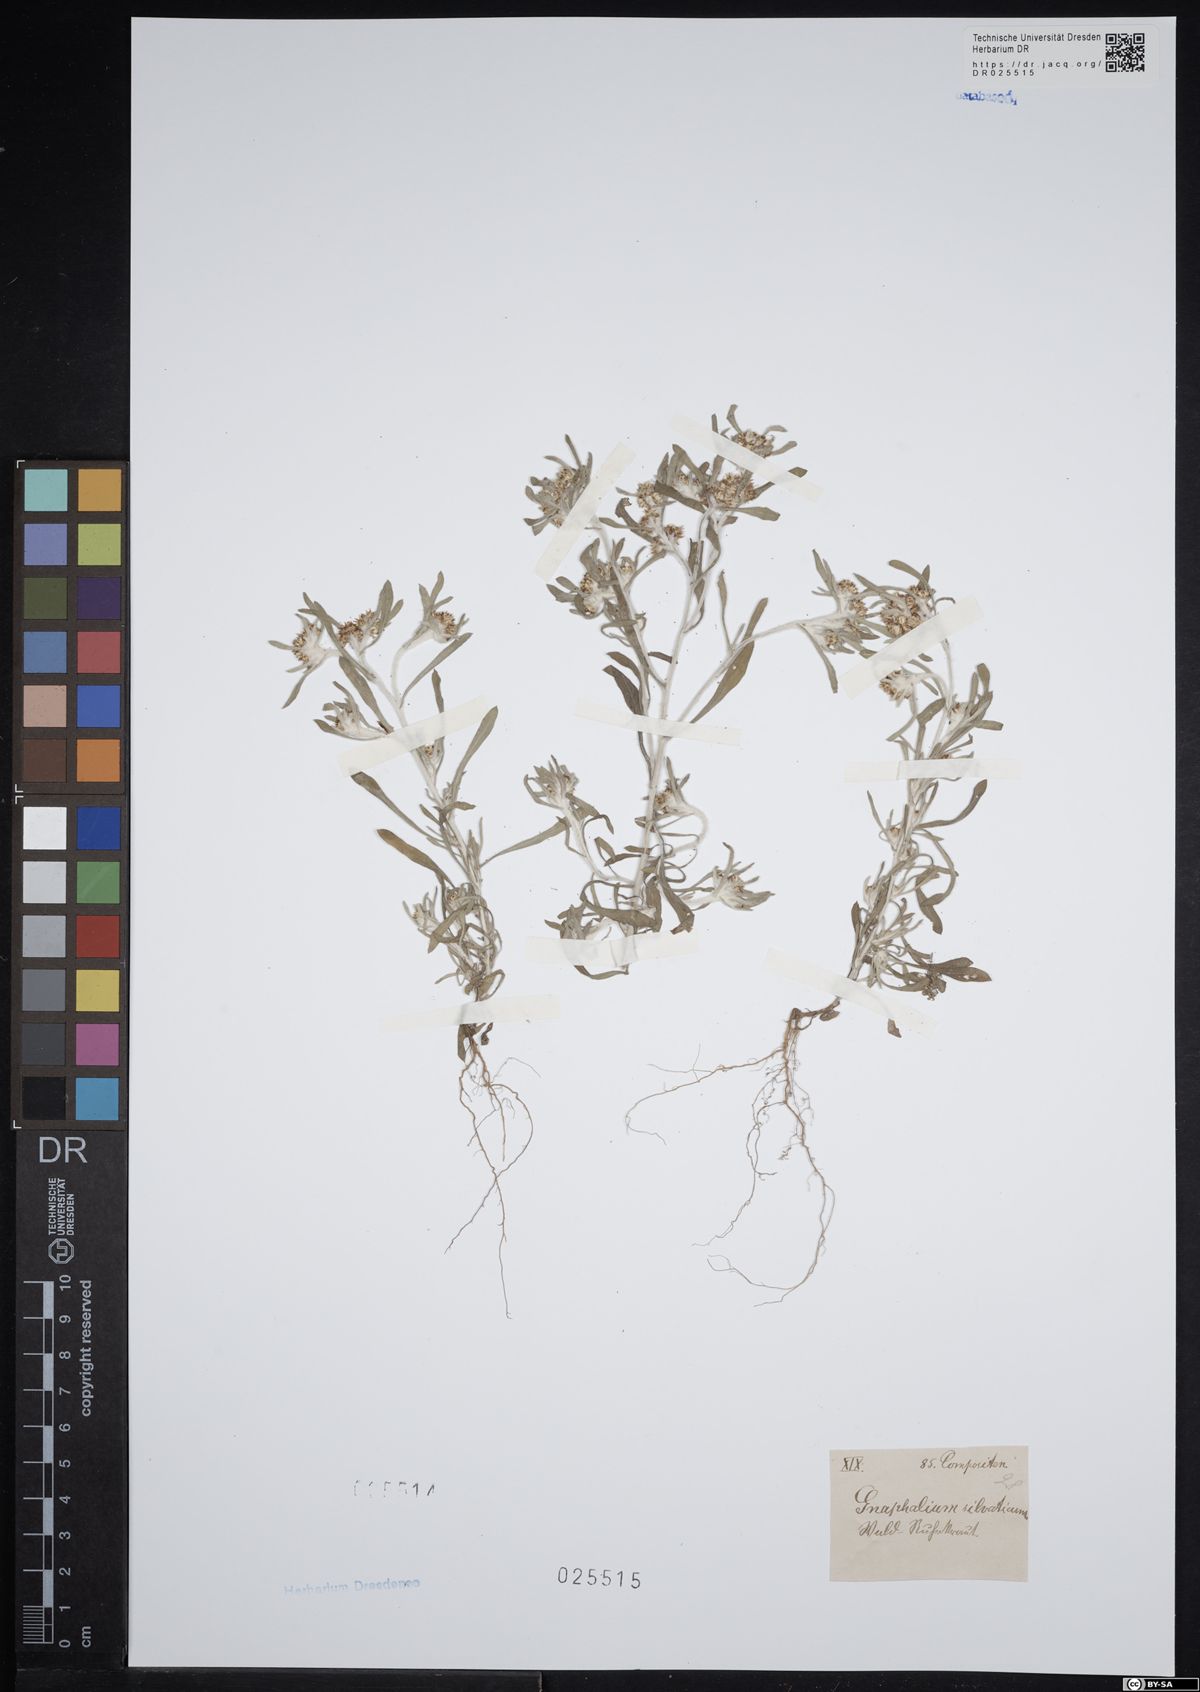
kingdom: Plantae
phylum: Tracheophyta
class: Magnoliopsida
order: Asterales
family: Asteraceae
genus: Gnaphalium
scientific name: Gnaphalium uliginosum
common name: Marsh cudweed
